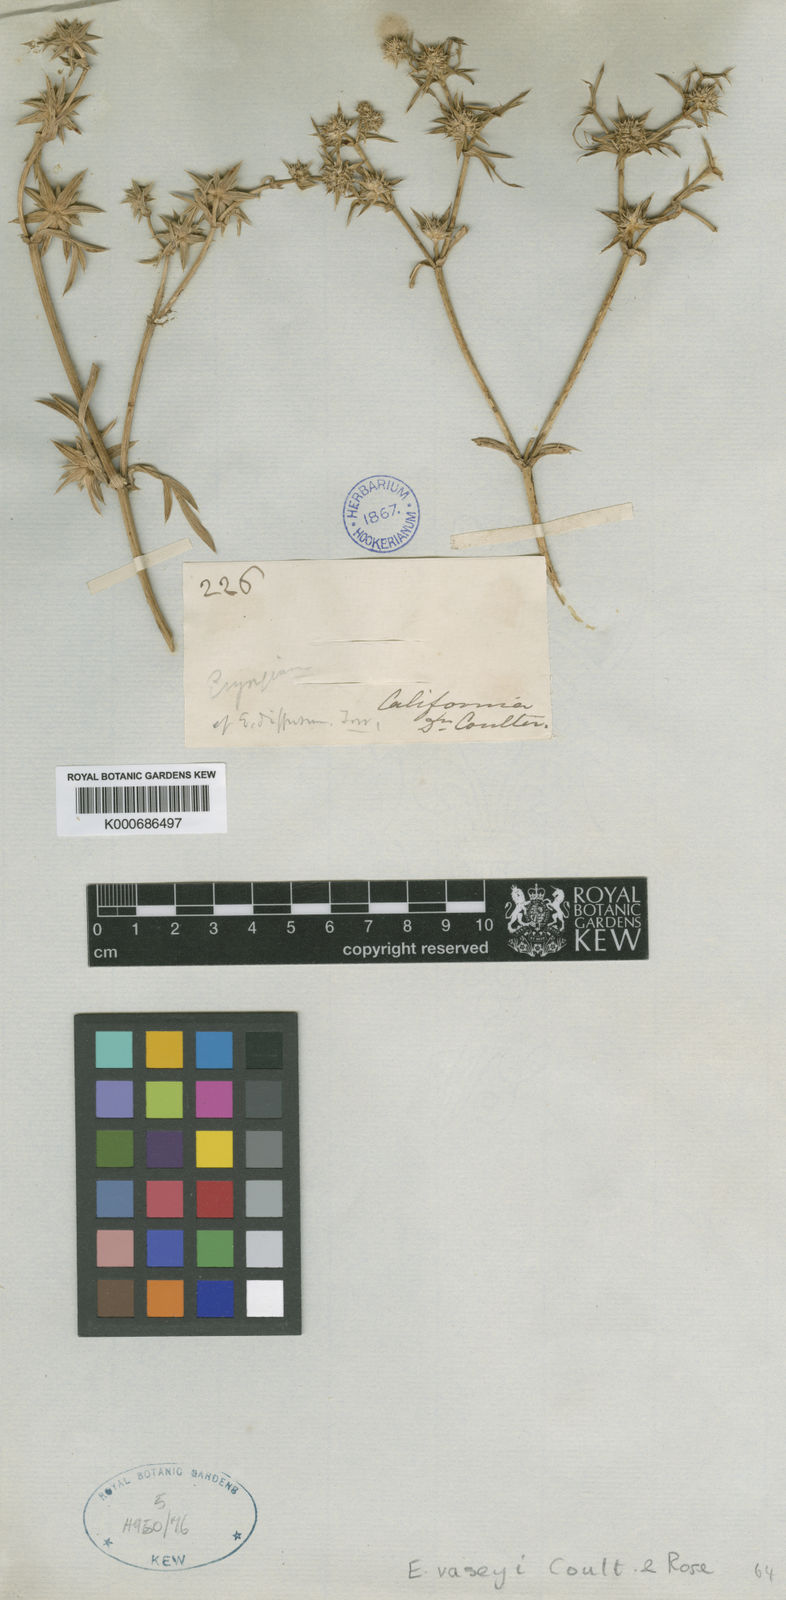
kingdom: Plantae
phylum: Tracheophyta
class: Magnoliopsida
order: Apiales
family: Apiaceae
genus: Eryngium
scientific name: Eryngium vaseyi
